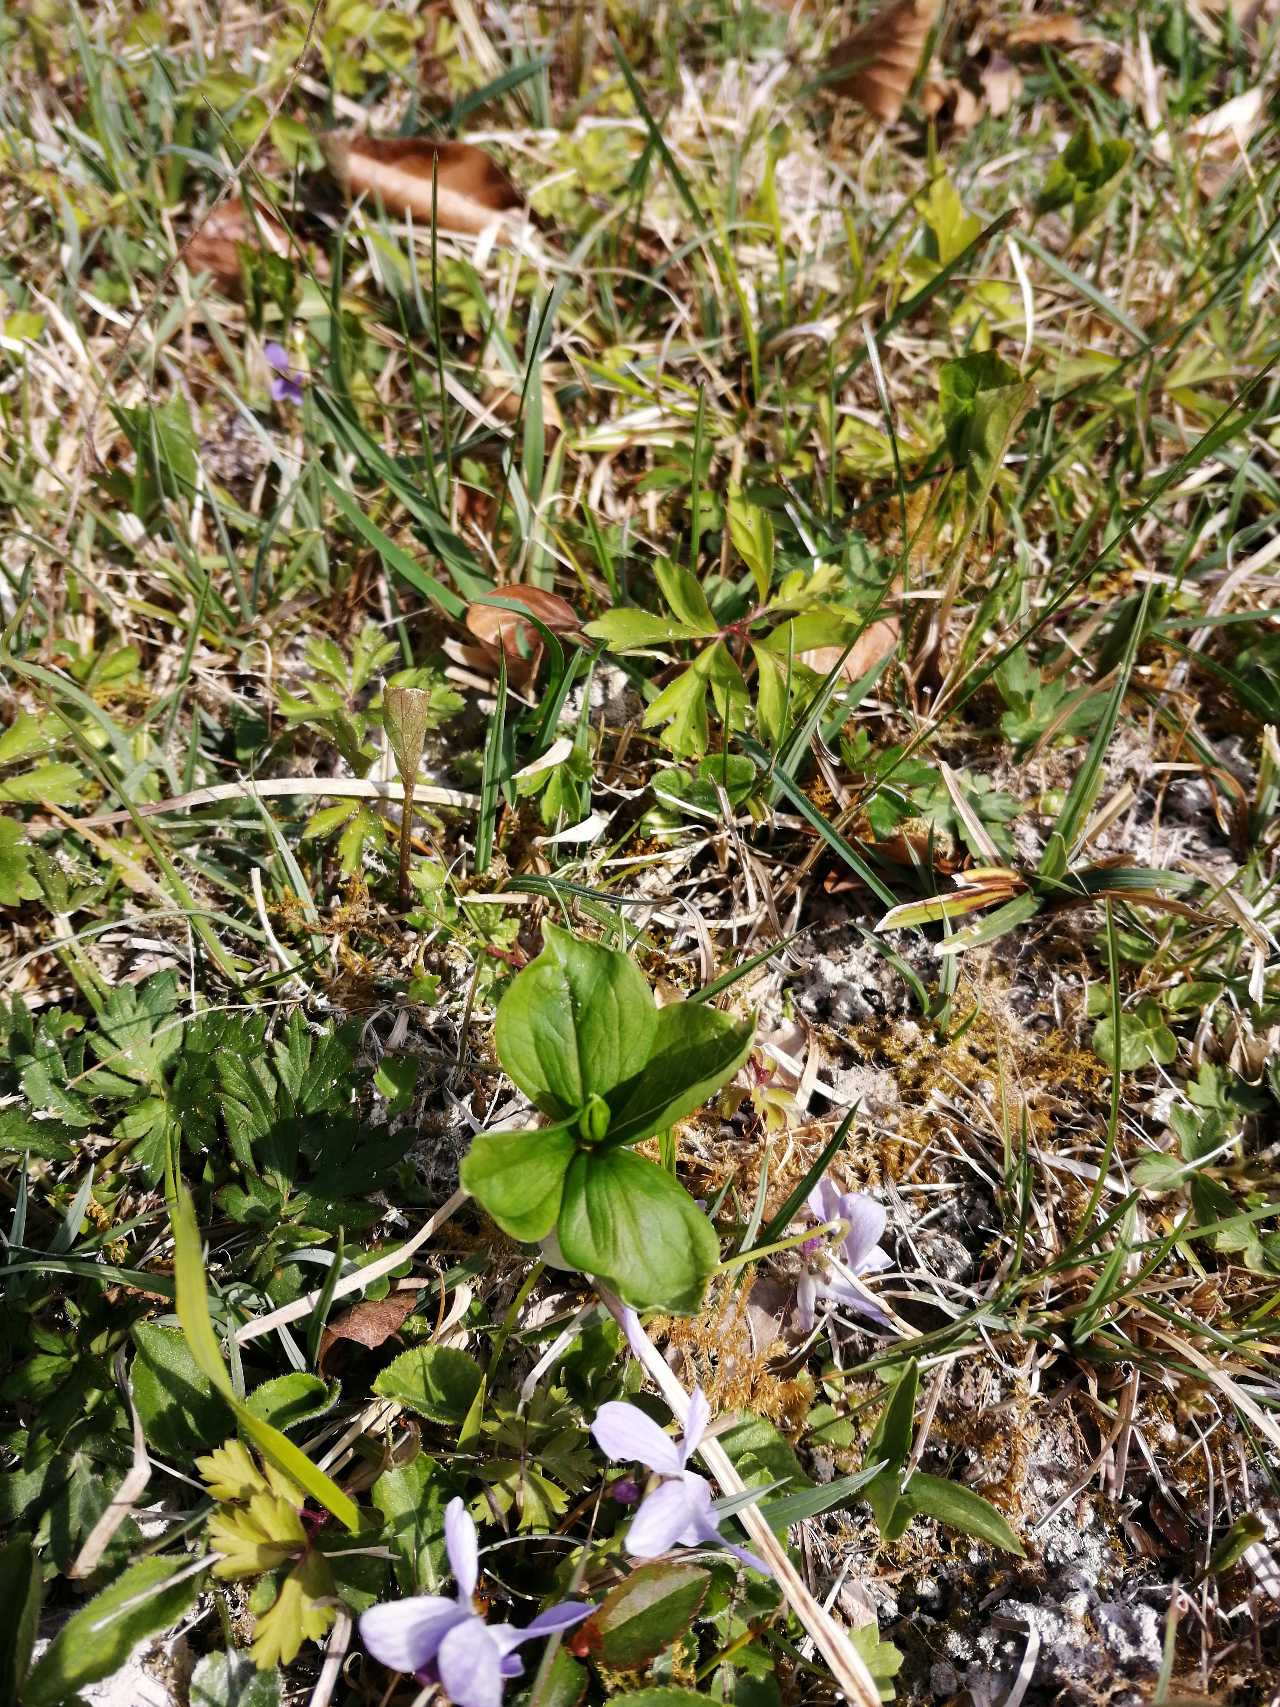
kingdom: Plantae
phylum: Tracheophyta
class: Liliopsida
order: Liliales
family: Melanthiaceae
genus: Paris
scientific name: Paris quadrifolia
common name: Firblad
